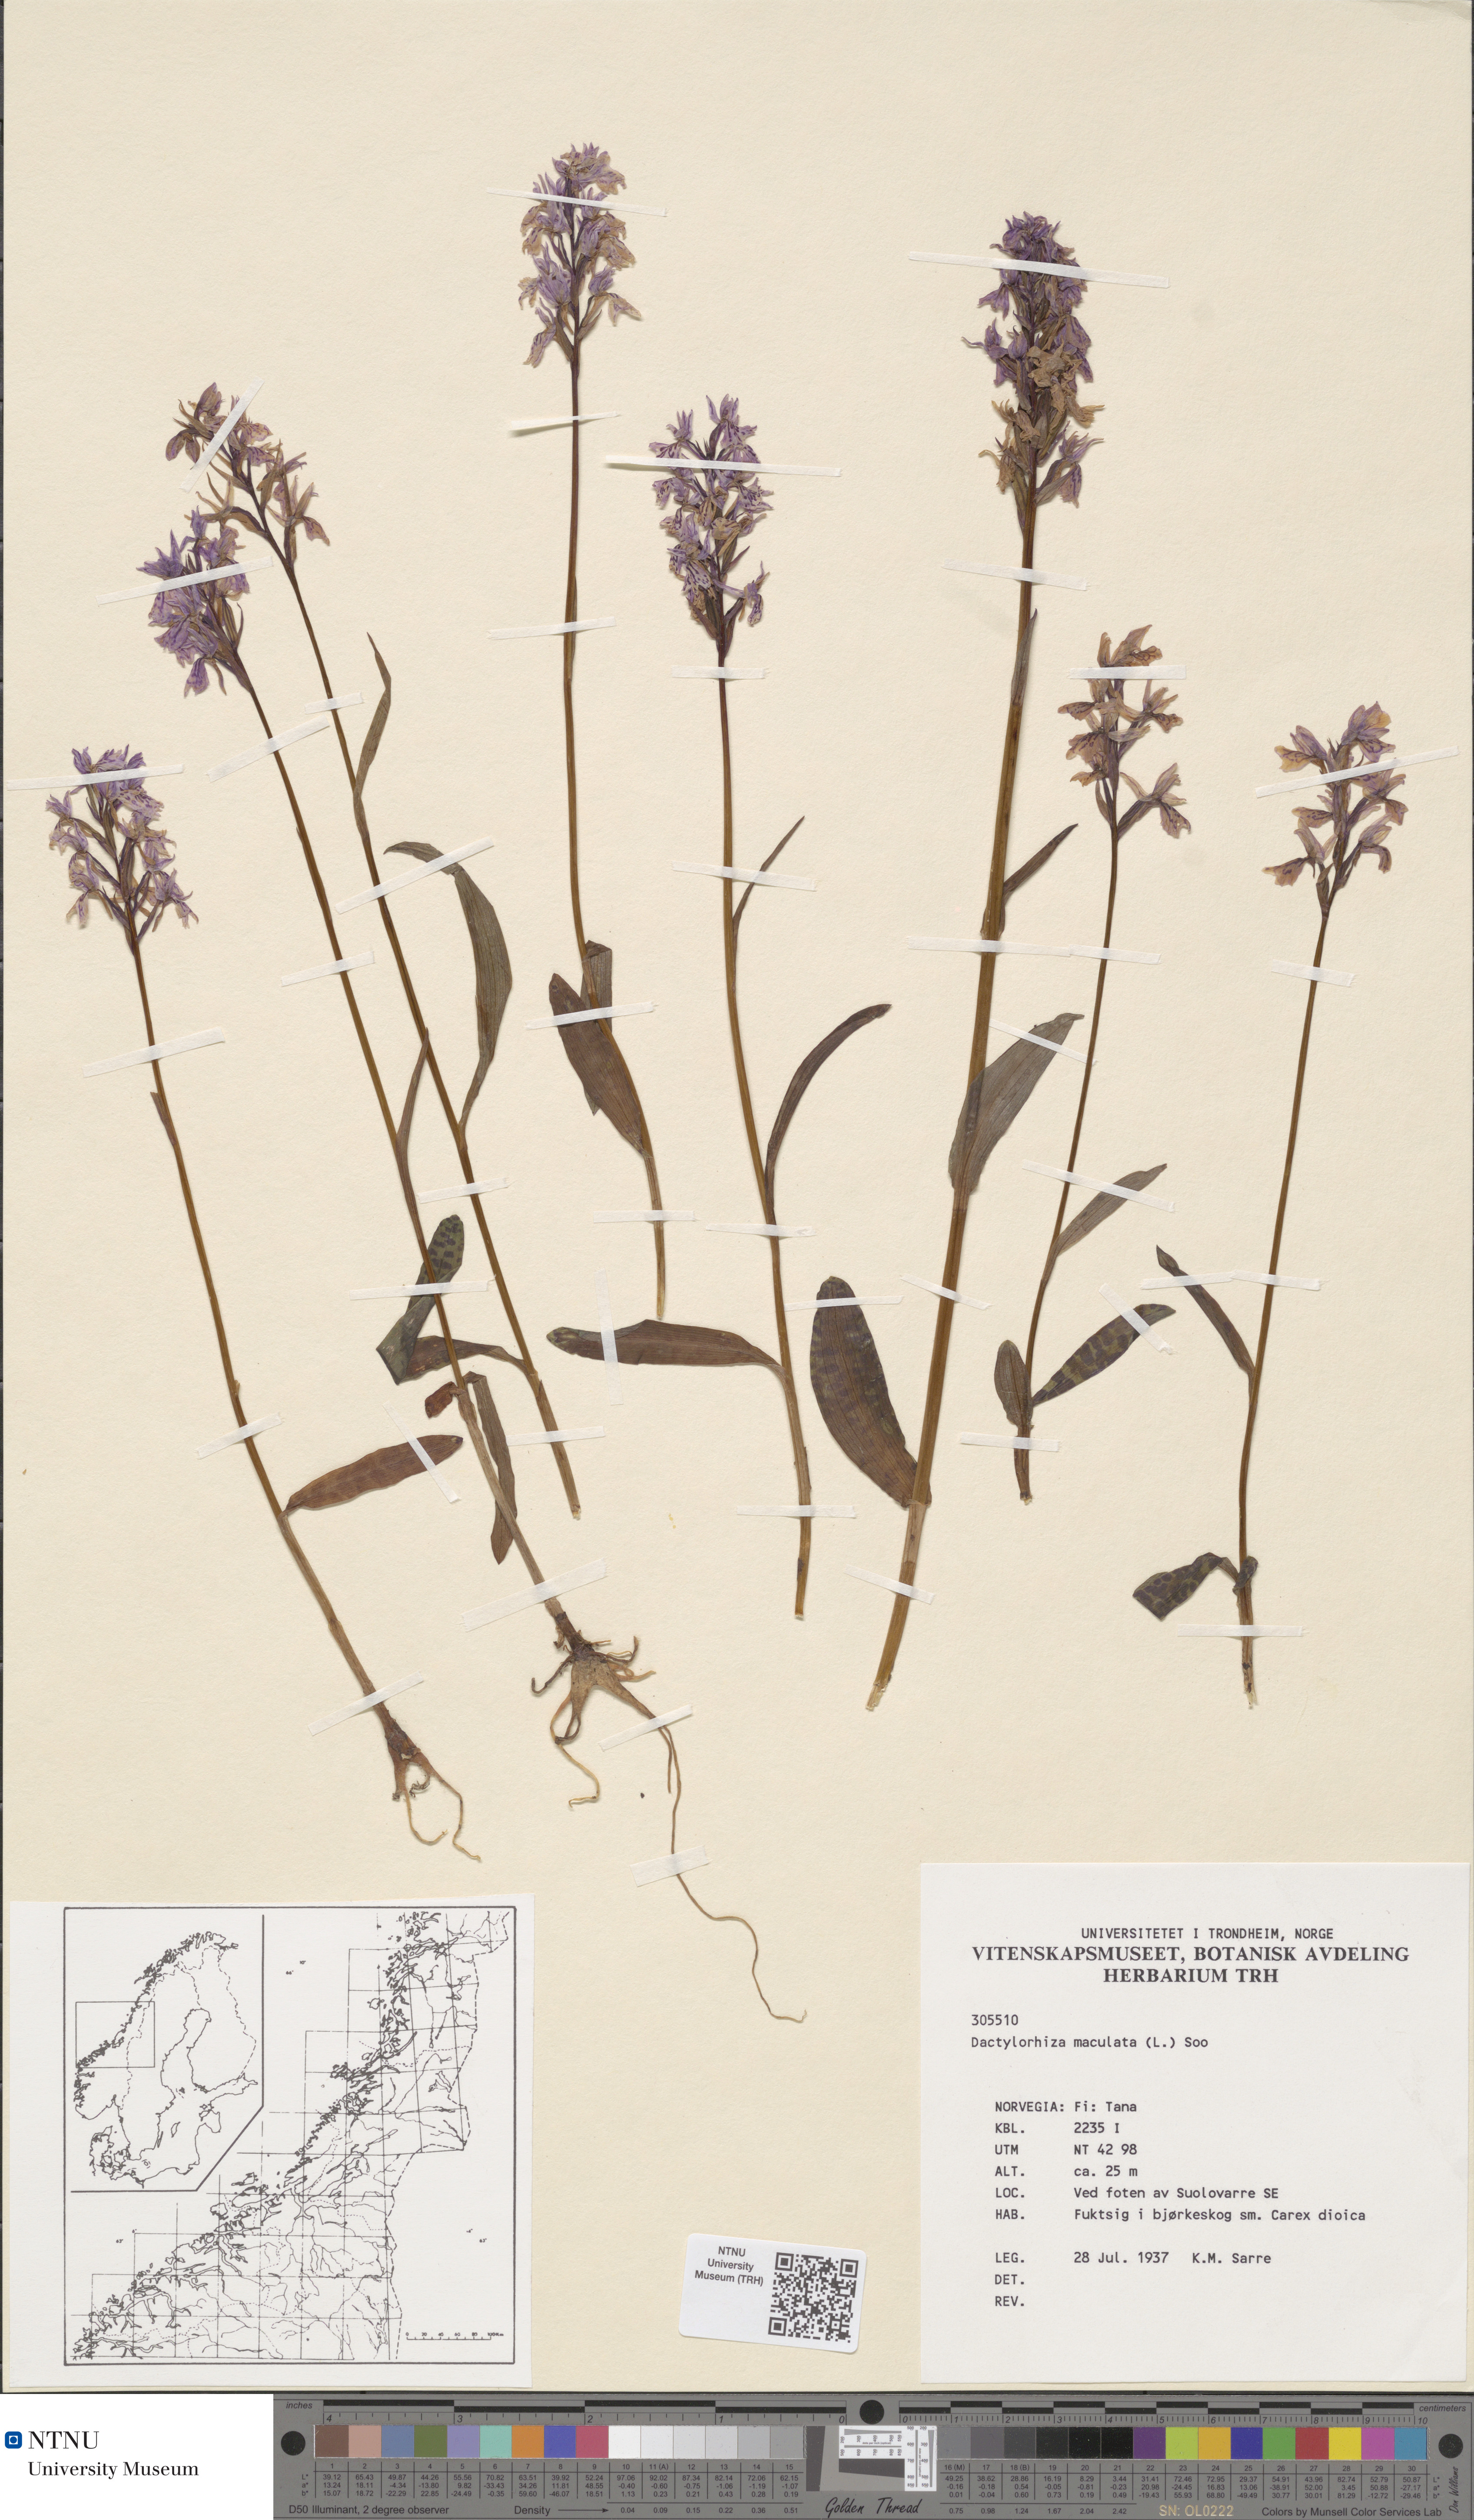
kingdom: Plantae
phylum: Tracheophyta
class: Liliopsida
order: Asparagales
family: Orchidaceae
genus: Dactylorhiza
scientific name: Dactylorhiza maculata
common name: Heath spotted-orchid
